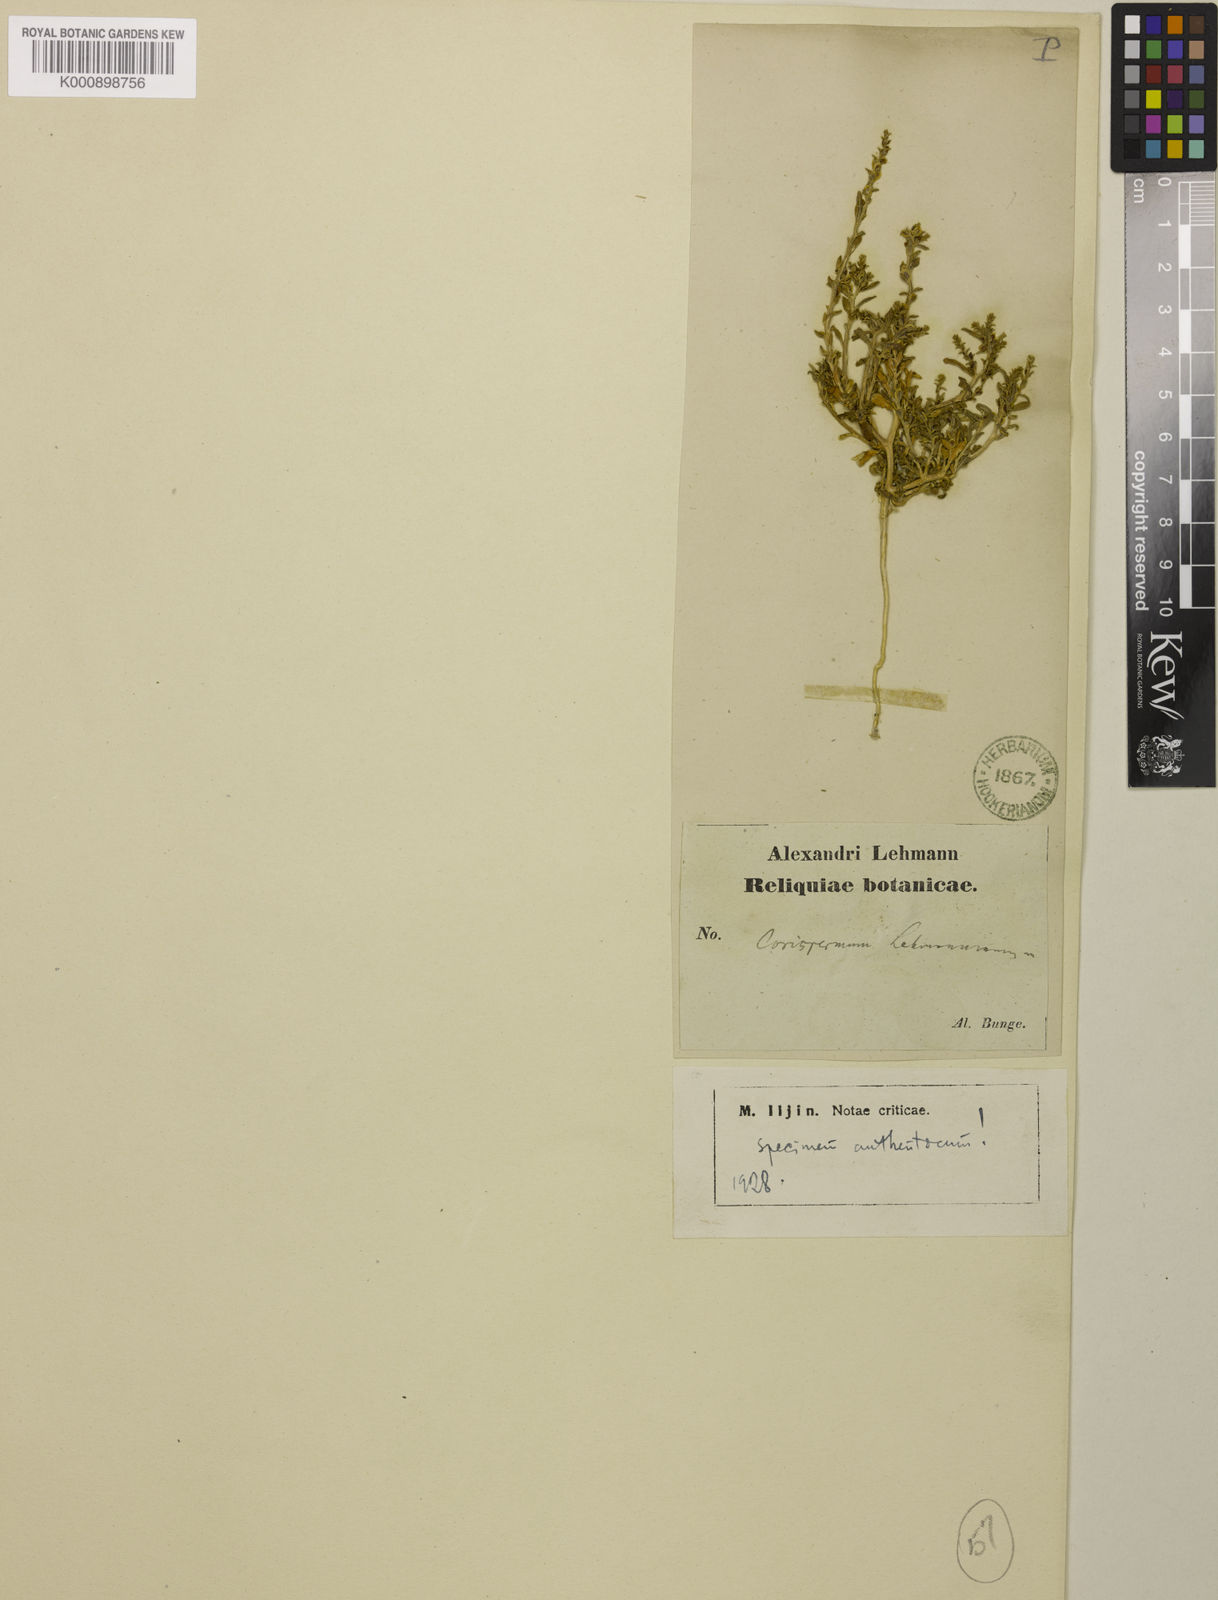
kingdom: Plantae
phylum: Tracheophyta
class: Magnoliopsida
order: Caryophyllales
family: Amaranthaceae
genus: Corispermum
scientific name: Corispermum lehmannianum
